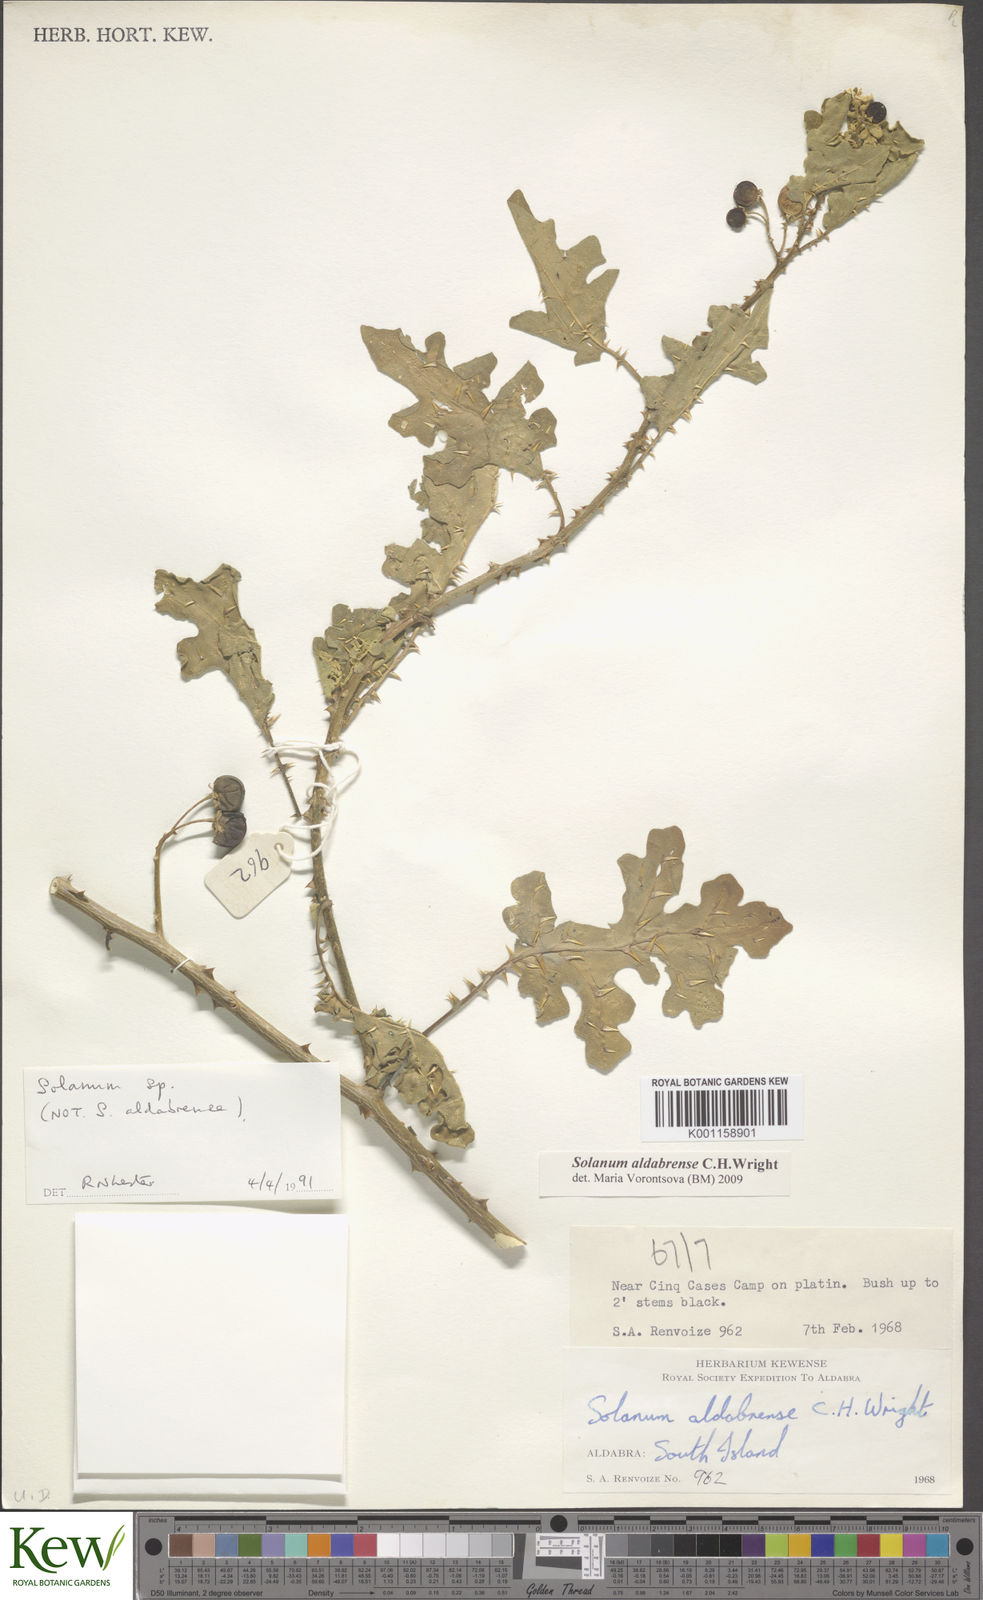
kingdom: Plantae
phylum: Tracheophyta
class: Magnoliopsida
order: Solanales
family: Solanaceae
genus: Solanum
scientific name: Solanum aldabrense
